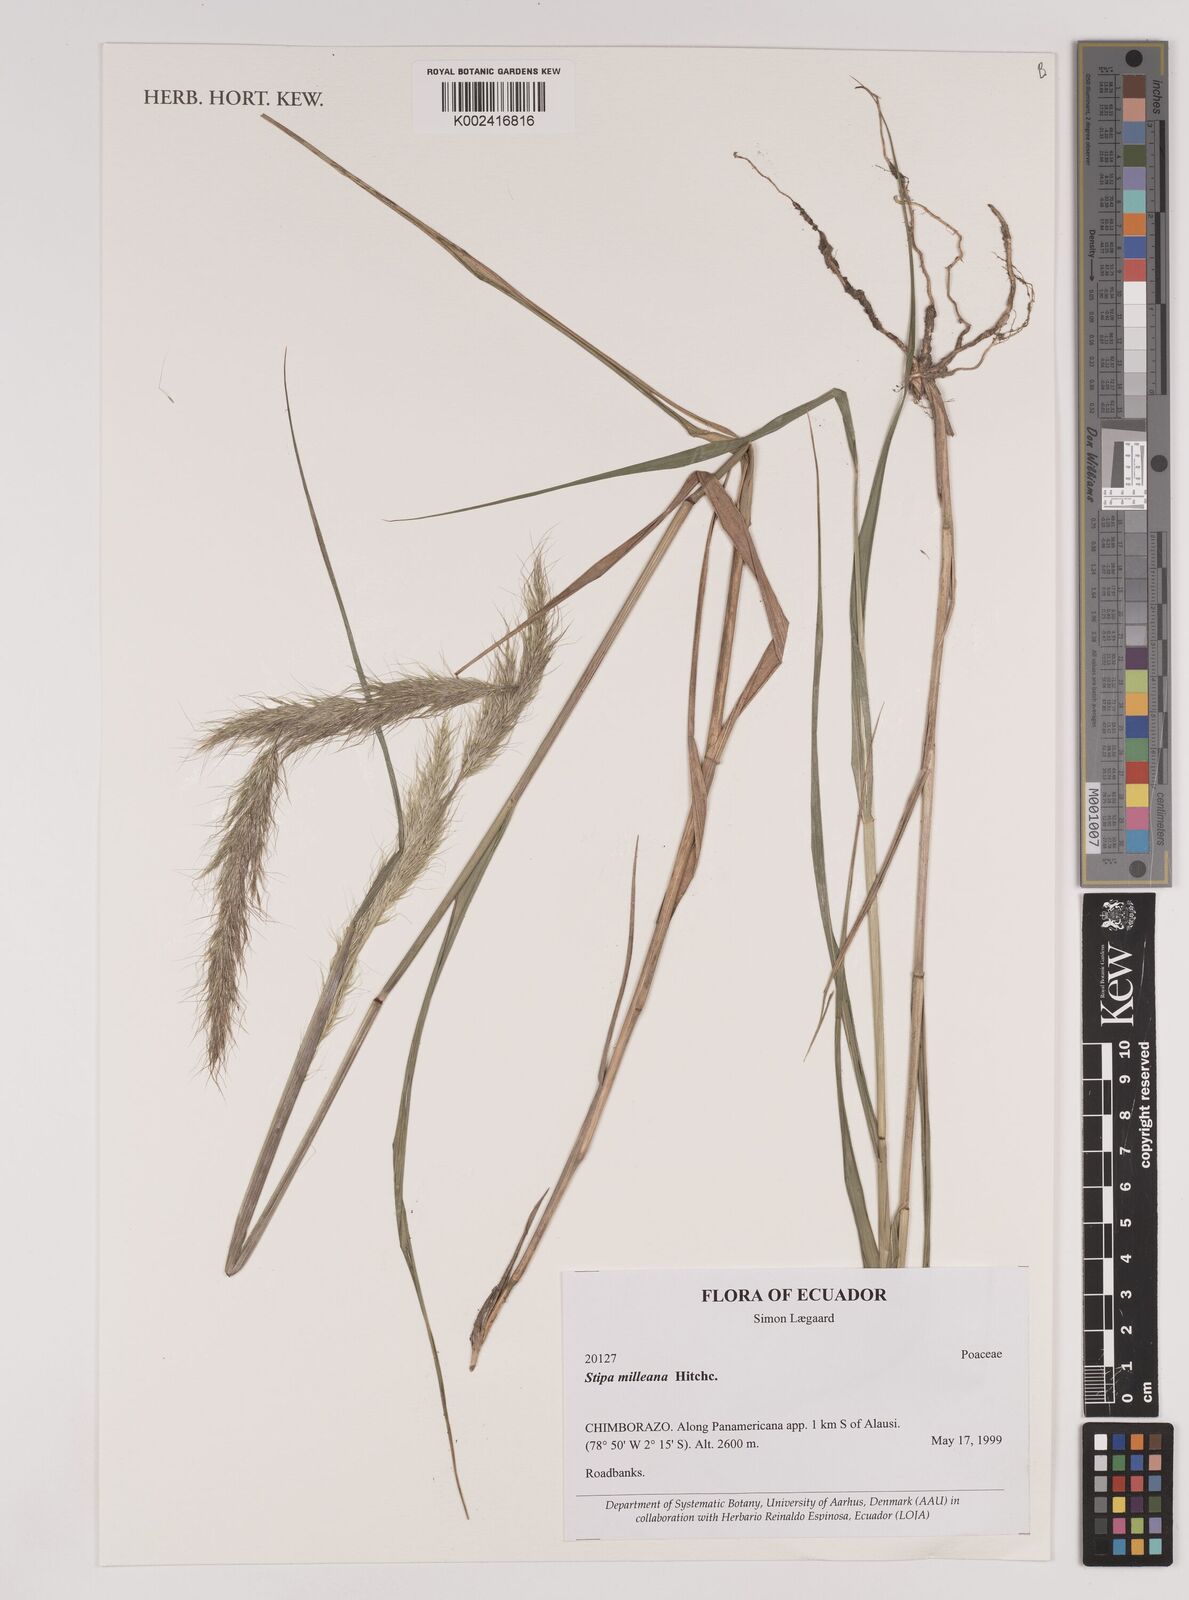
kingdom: Plantae
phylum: Tracheophyta
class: Liliopsida
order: Poales
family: Poaceae
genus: Stipa
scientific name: Stipa milleana
